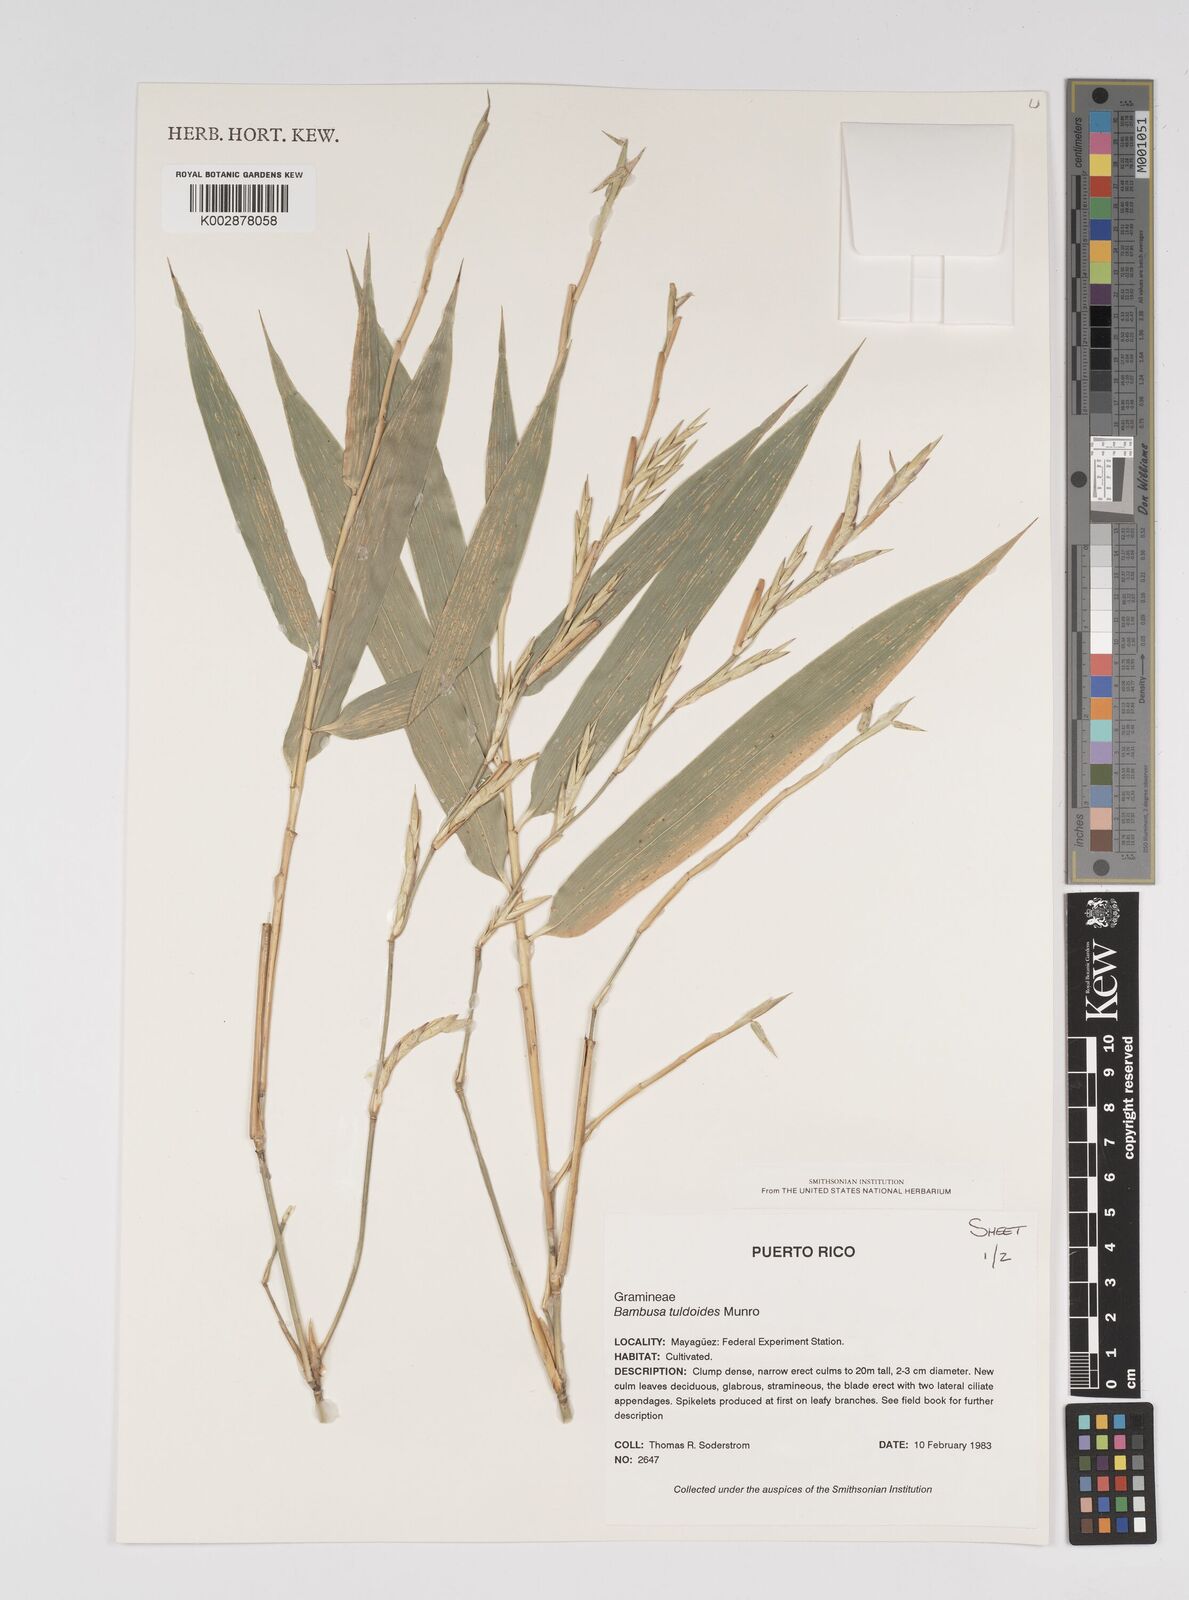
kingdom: Plantae
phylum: Tracheophyta
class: Liliopsida
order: Poales
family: Poaceae
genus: Bambusa
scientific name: Bambusa tuldoides
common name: Verdant bamboo
